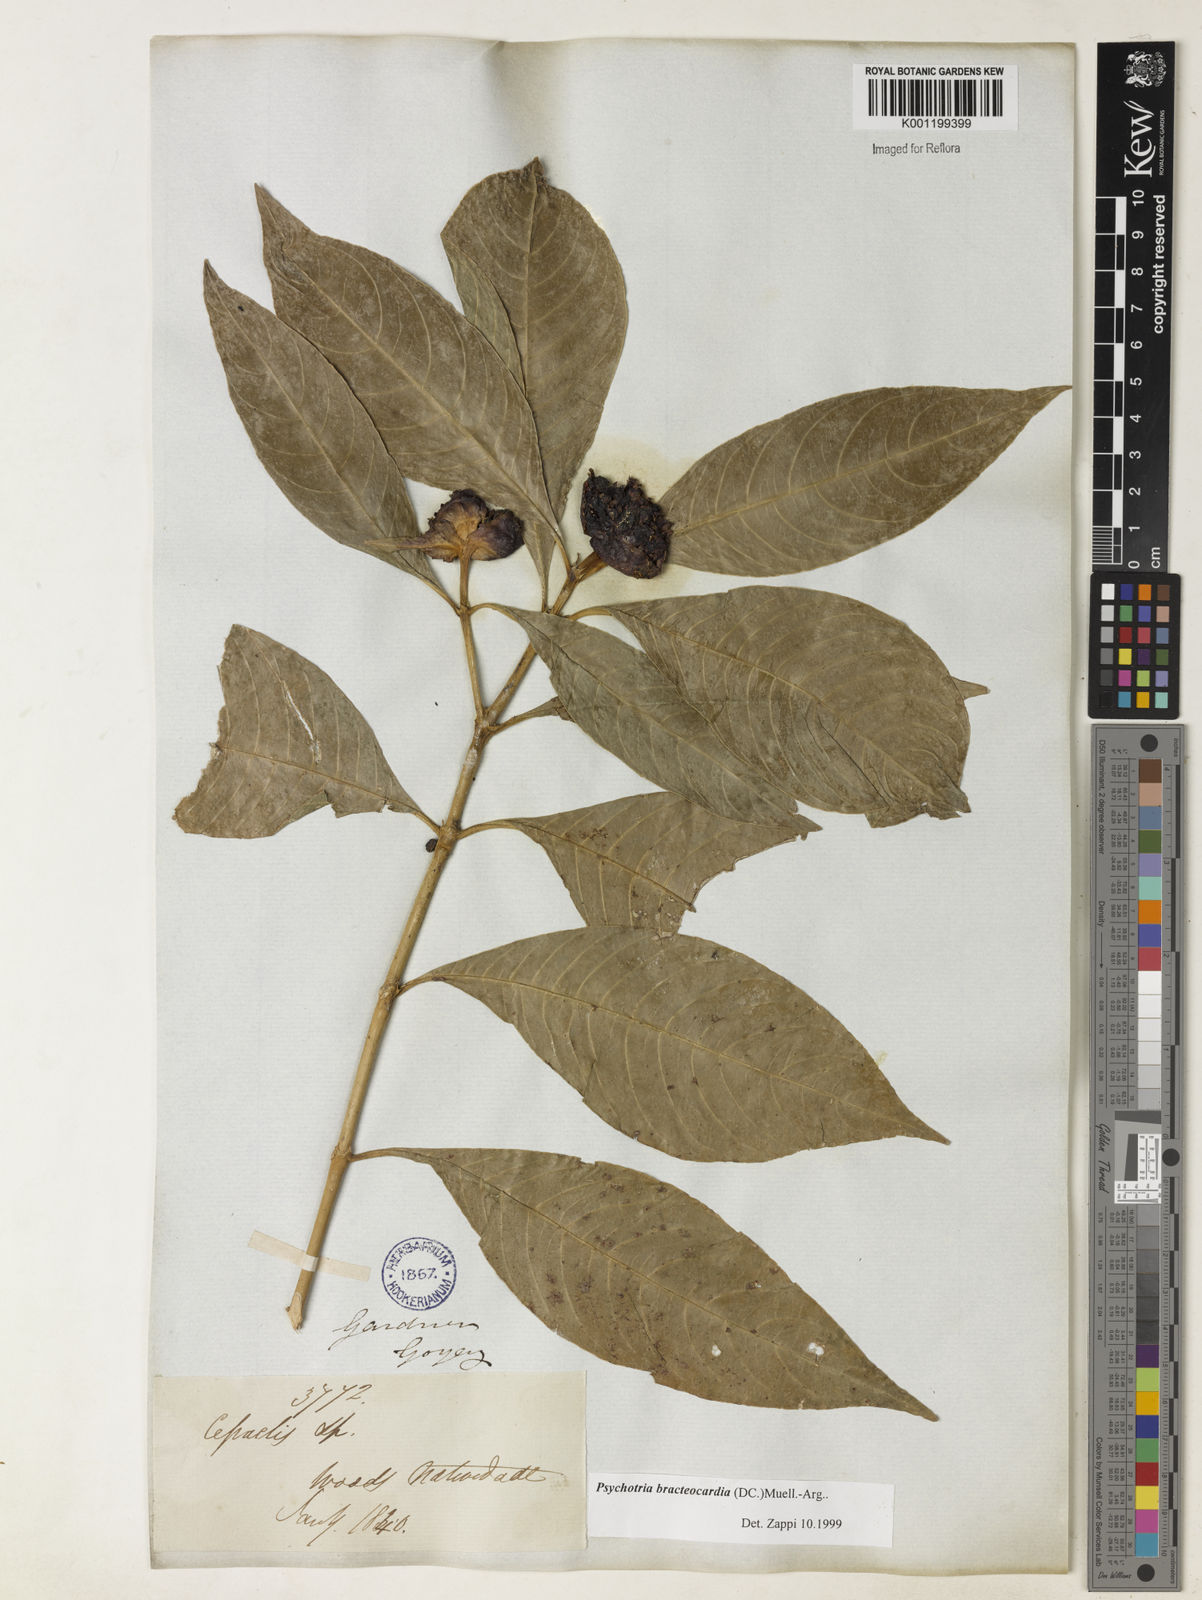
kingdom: Plantae
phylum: Tracheophyta
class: Magnoliopsida
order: Gentianales
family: Rubiaceae
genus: Psychotria
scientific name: Psychotria
